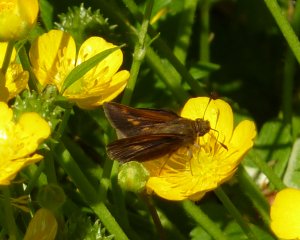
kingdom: Animalia
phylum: Arthropoda
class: Insecta
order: Lepidoptera
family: Hesperiidae
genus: Polites
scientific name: Polites themistocles
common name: Tawny-edged Skipper
